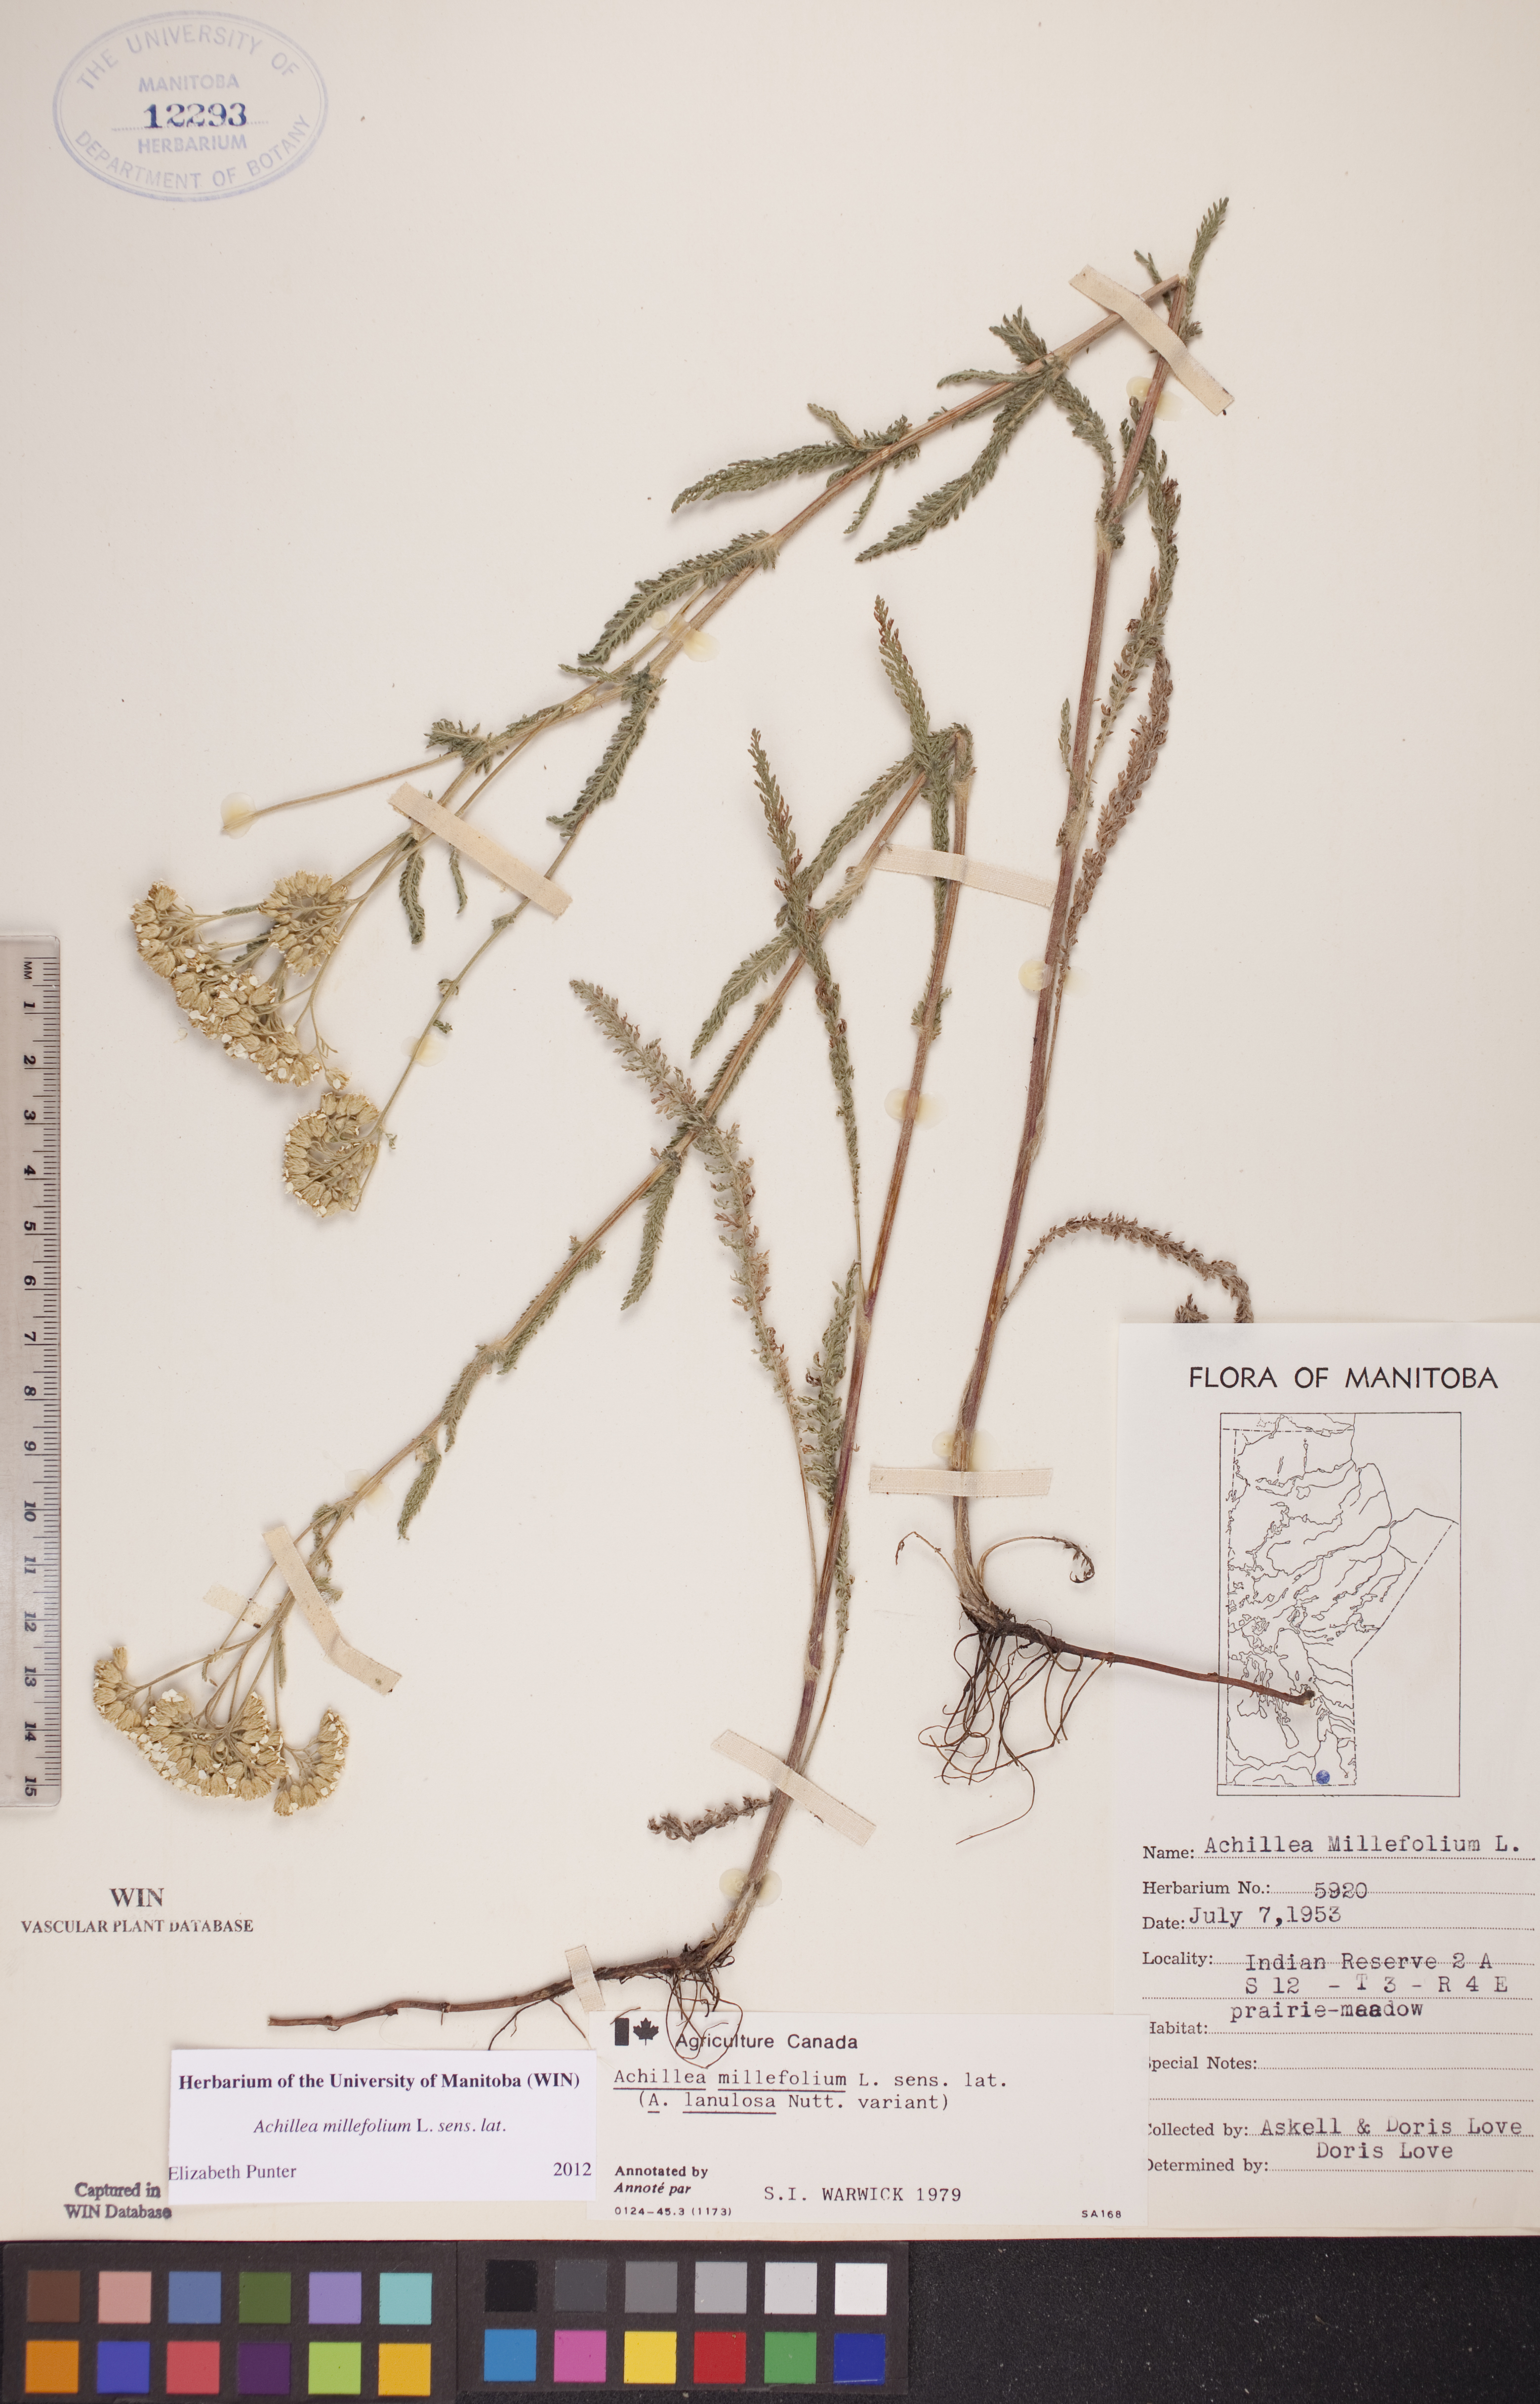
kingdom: Plantae
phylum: Tracheophyta
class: Magnoliopsida
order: Asterales
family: Asteraceae
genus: Achillea
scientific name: Achillea millefolium
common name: Yarrow
